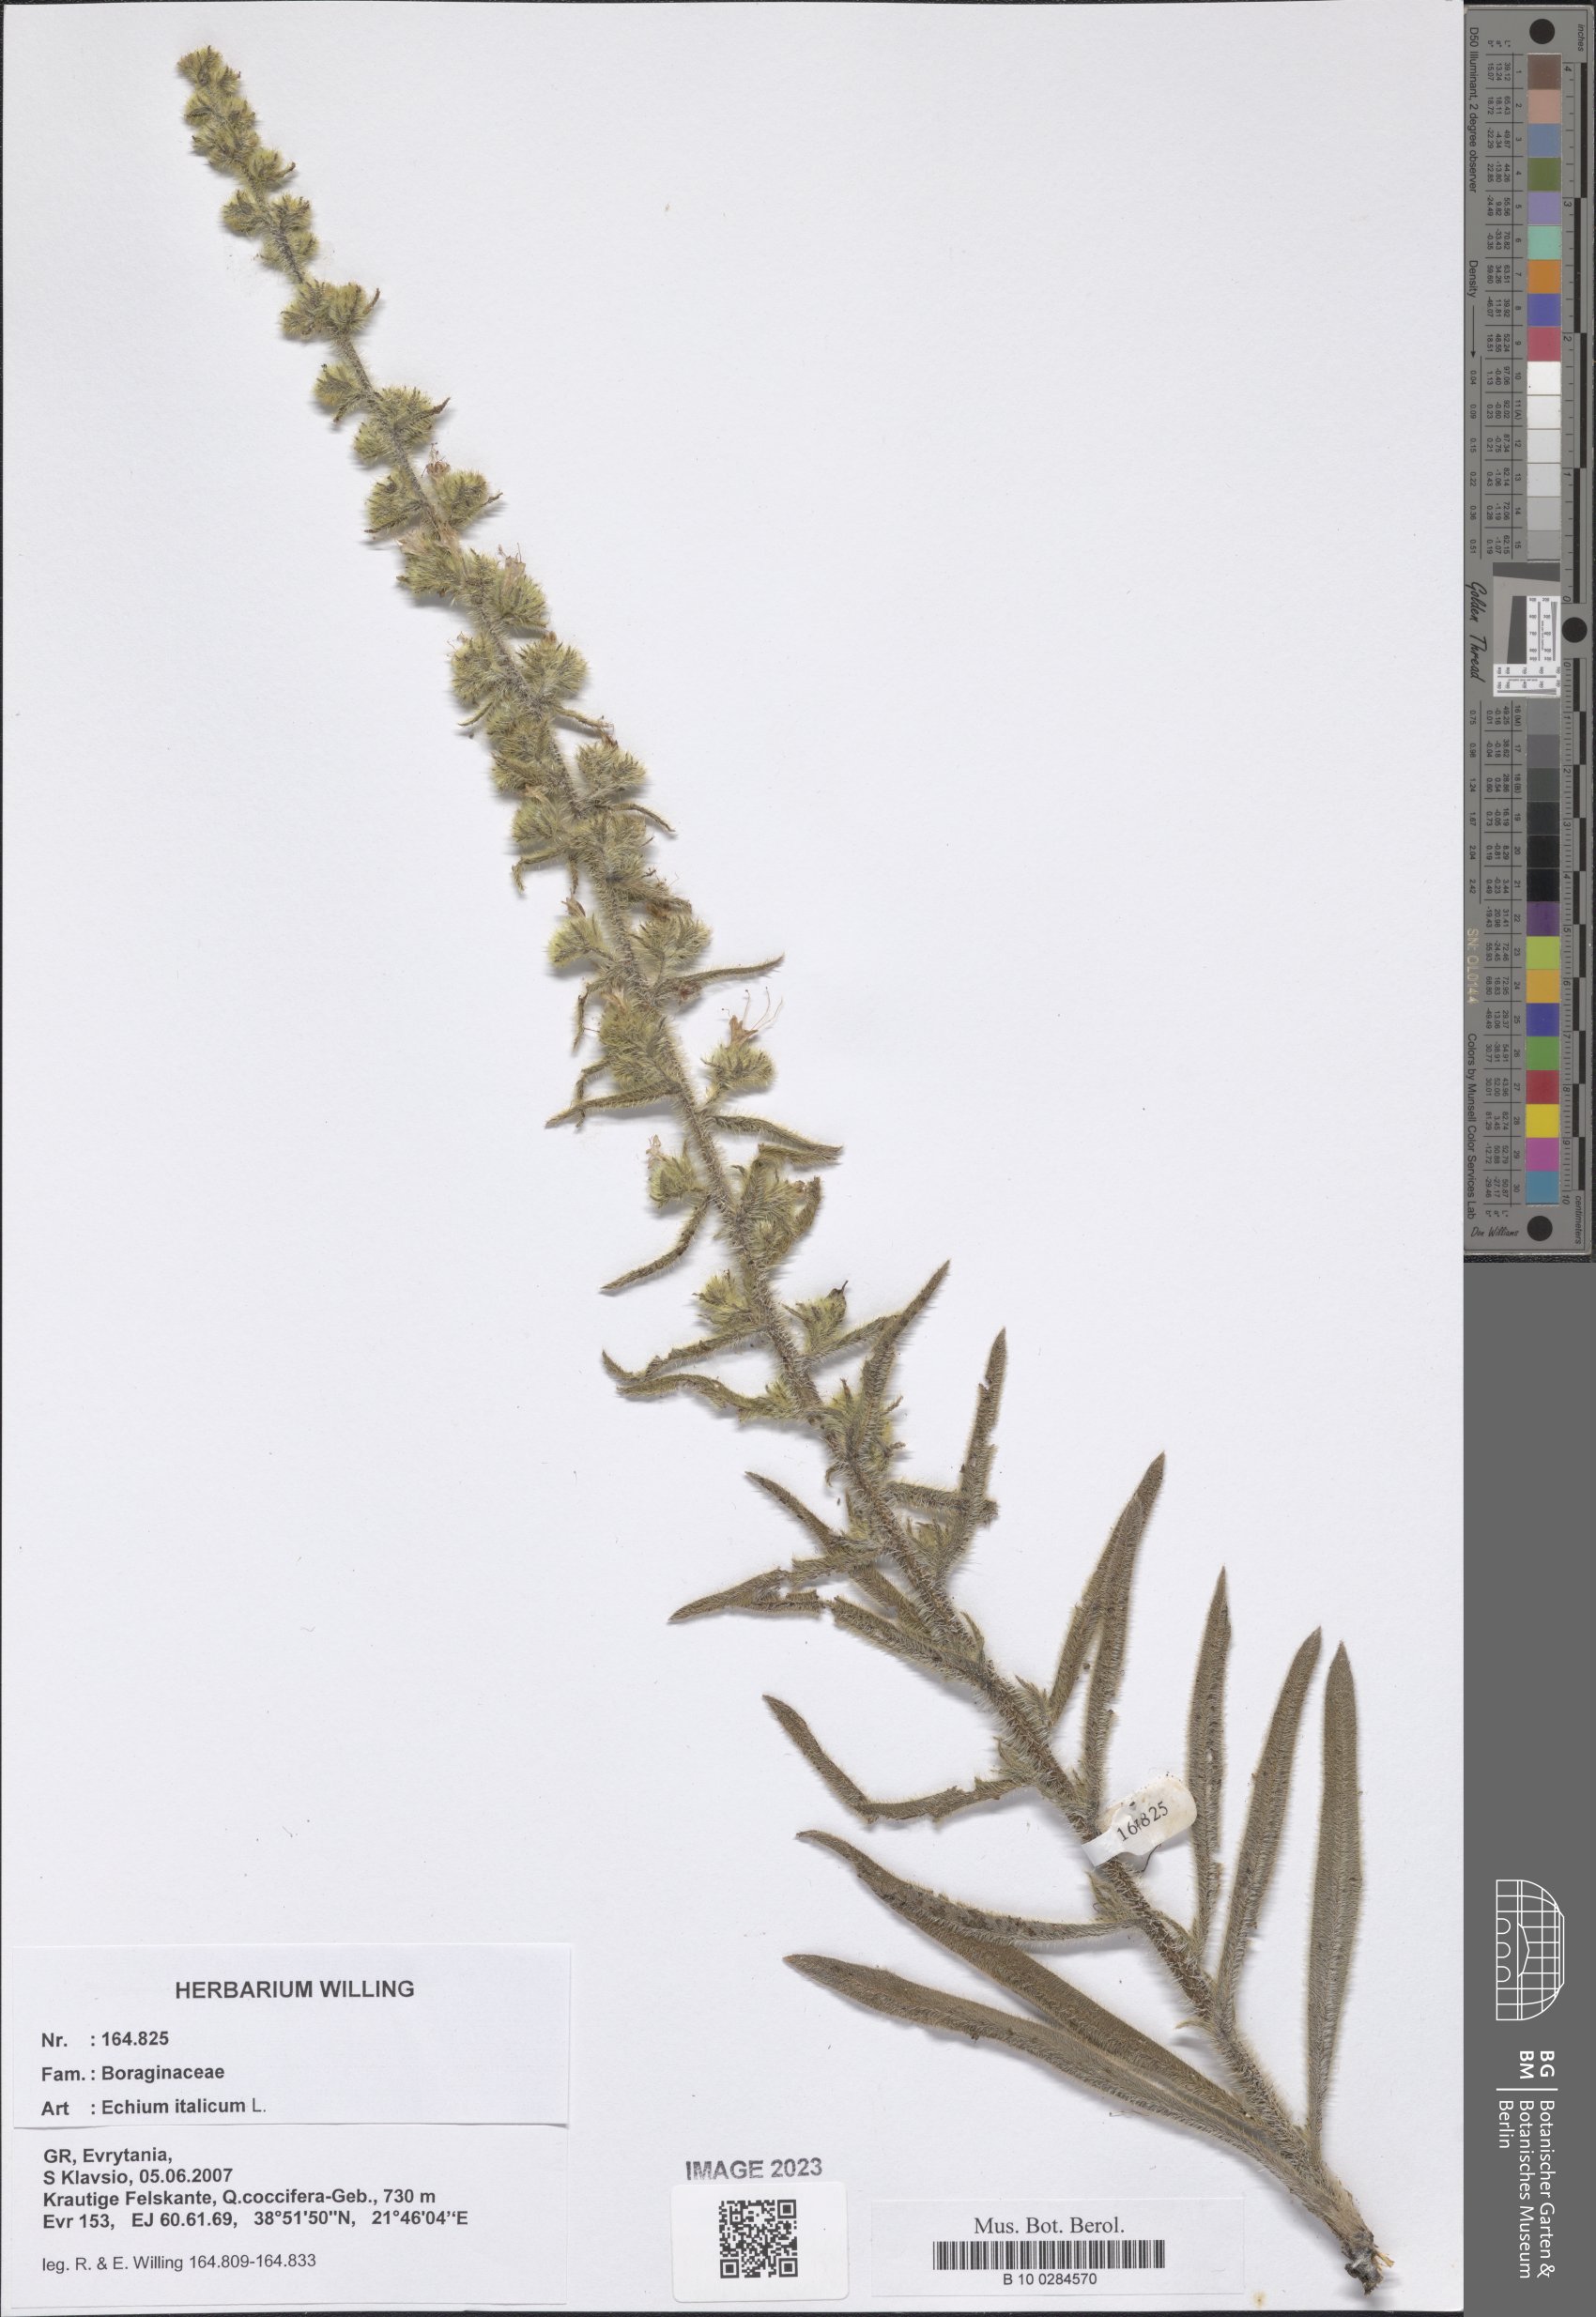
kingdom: Plantae
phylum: Tracheophyta
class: Magnoliopsida
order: Boraginales
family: Boraginaceae
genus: Echium
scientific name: Echium italicum
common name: Italian viper's bugloss
